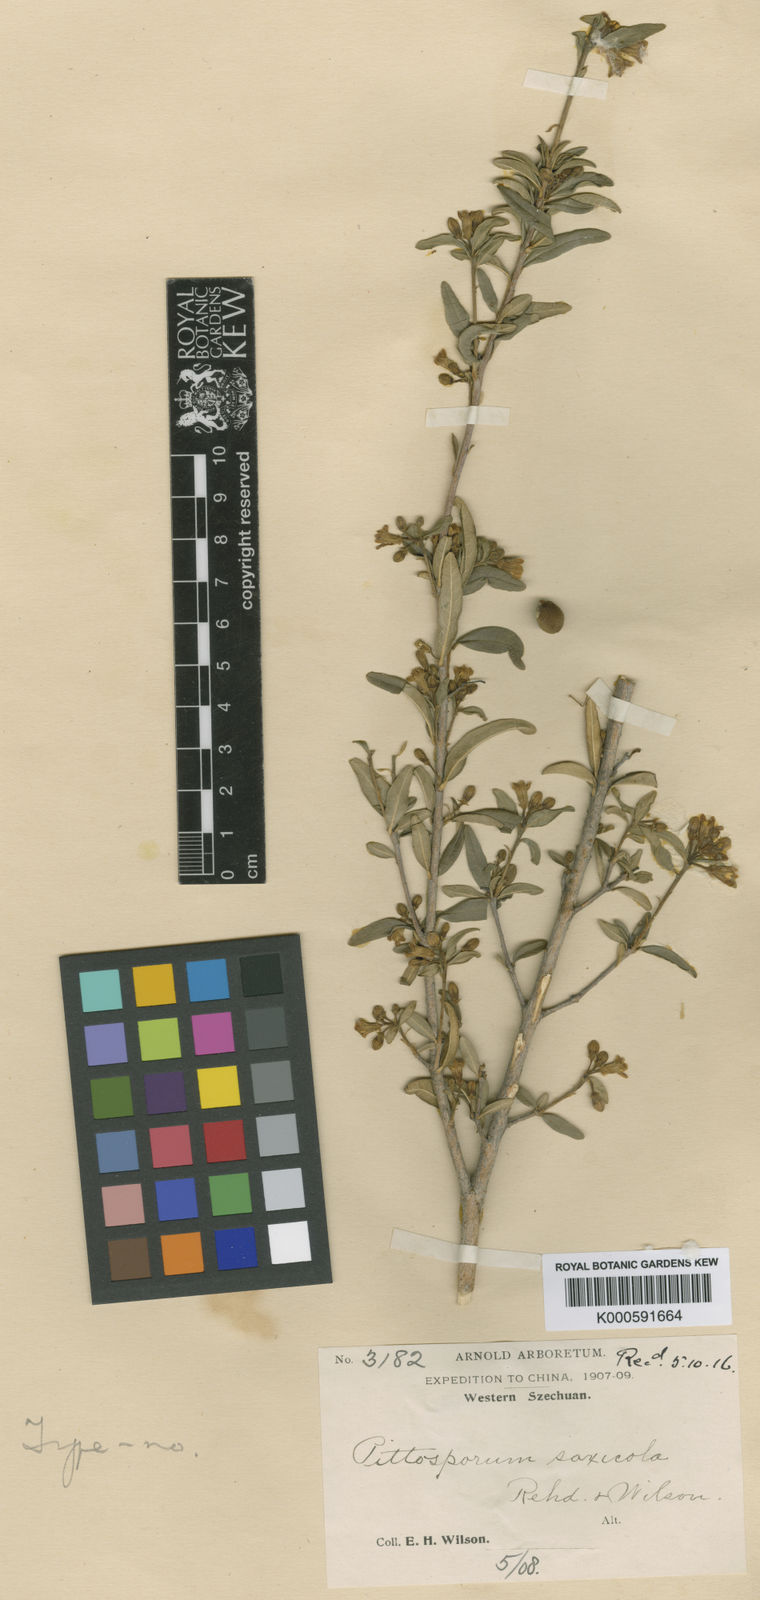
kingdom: Plantae
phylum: Tracheophyta
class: Magnoliopsida
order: Apiales
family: Pittosporaceae
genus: Pittosporum
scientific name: Pittosporum saxicola
